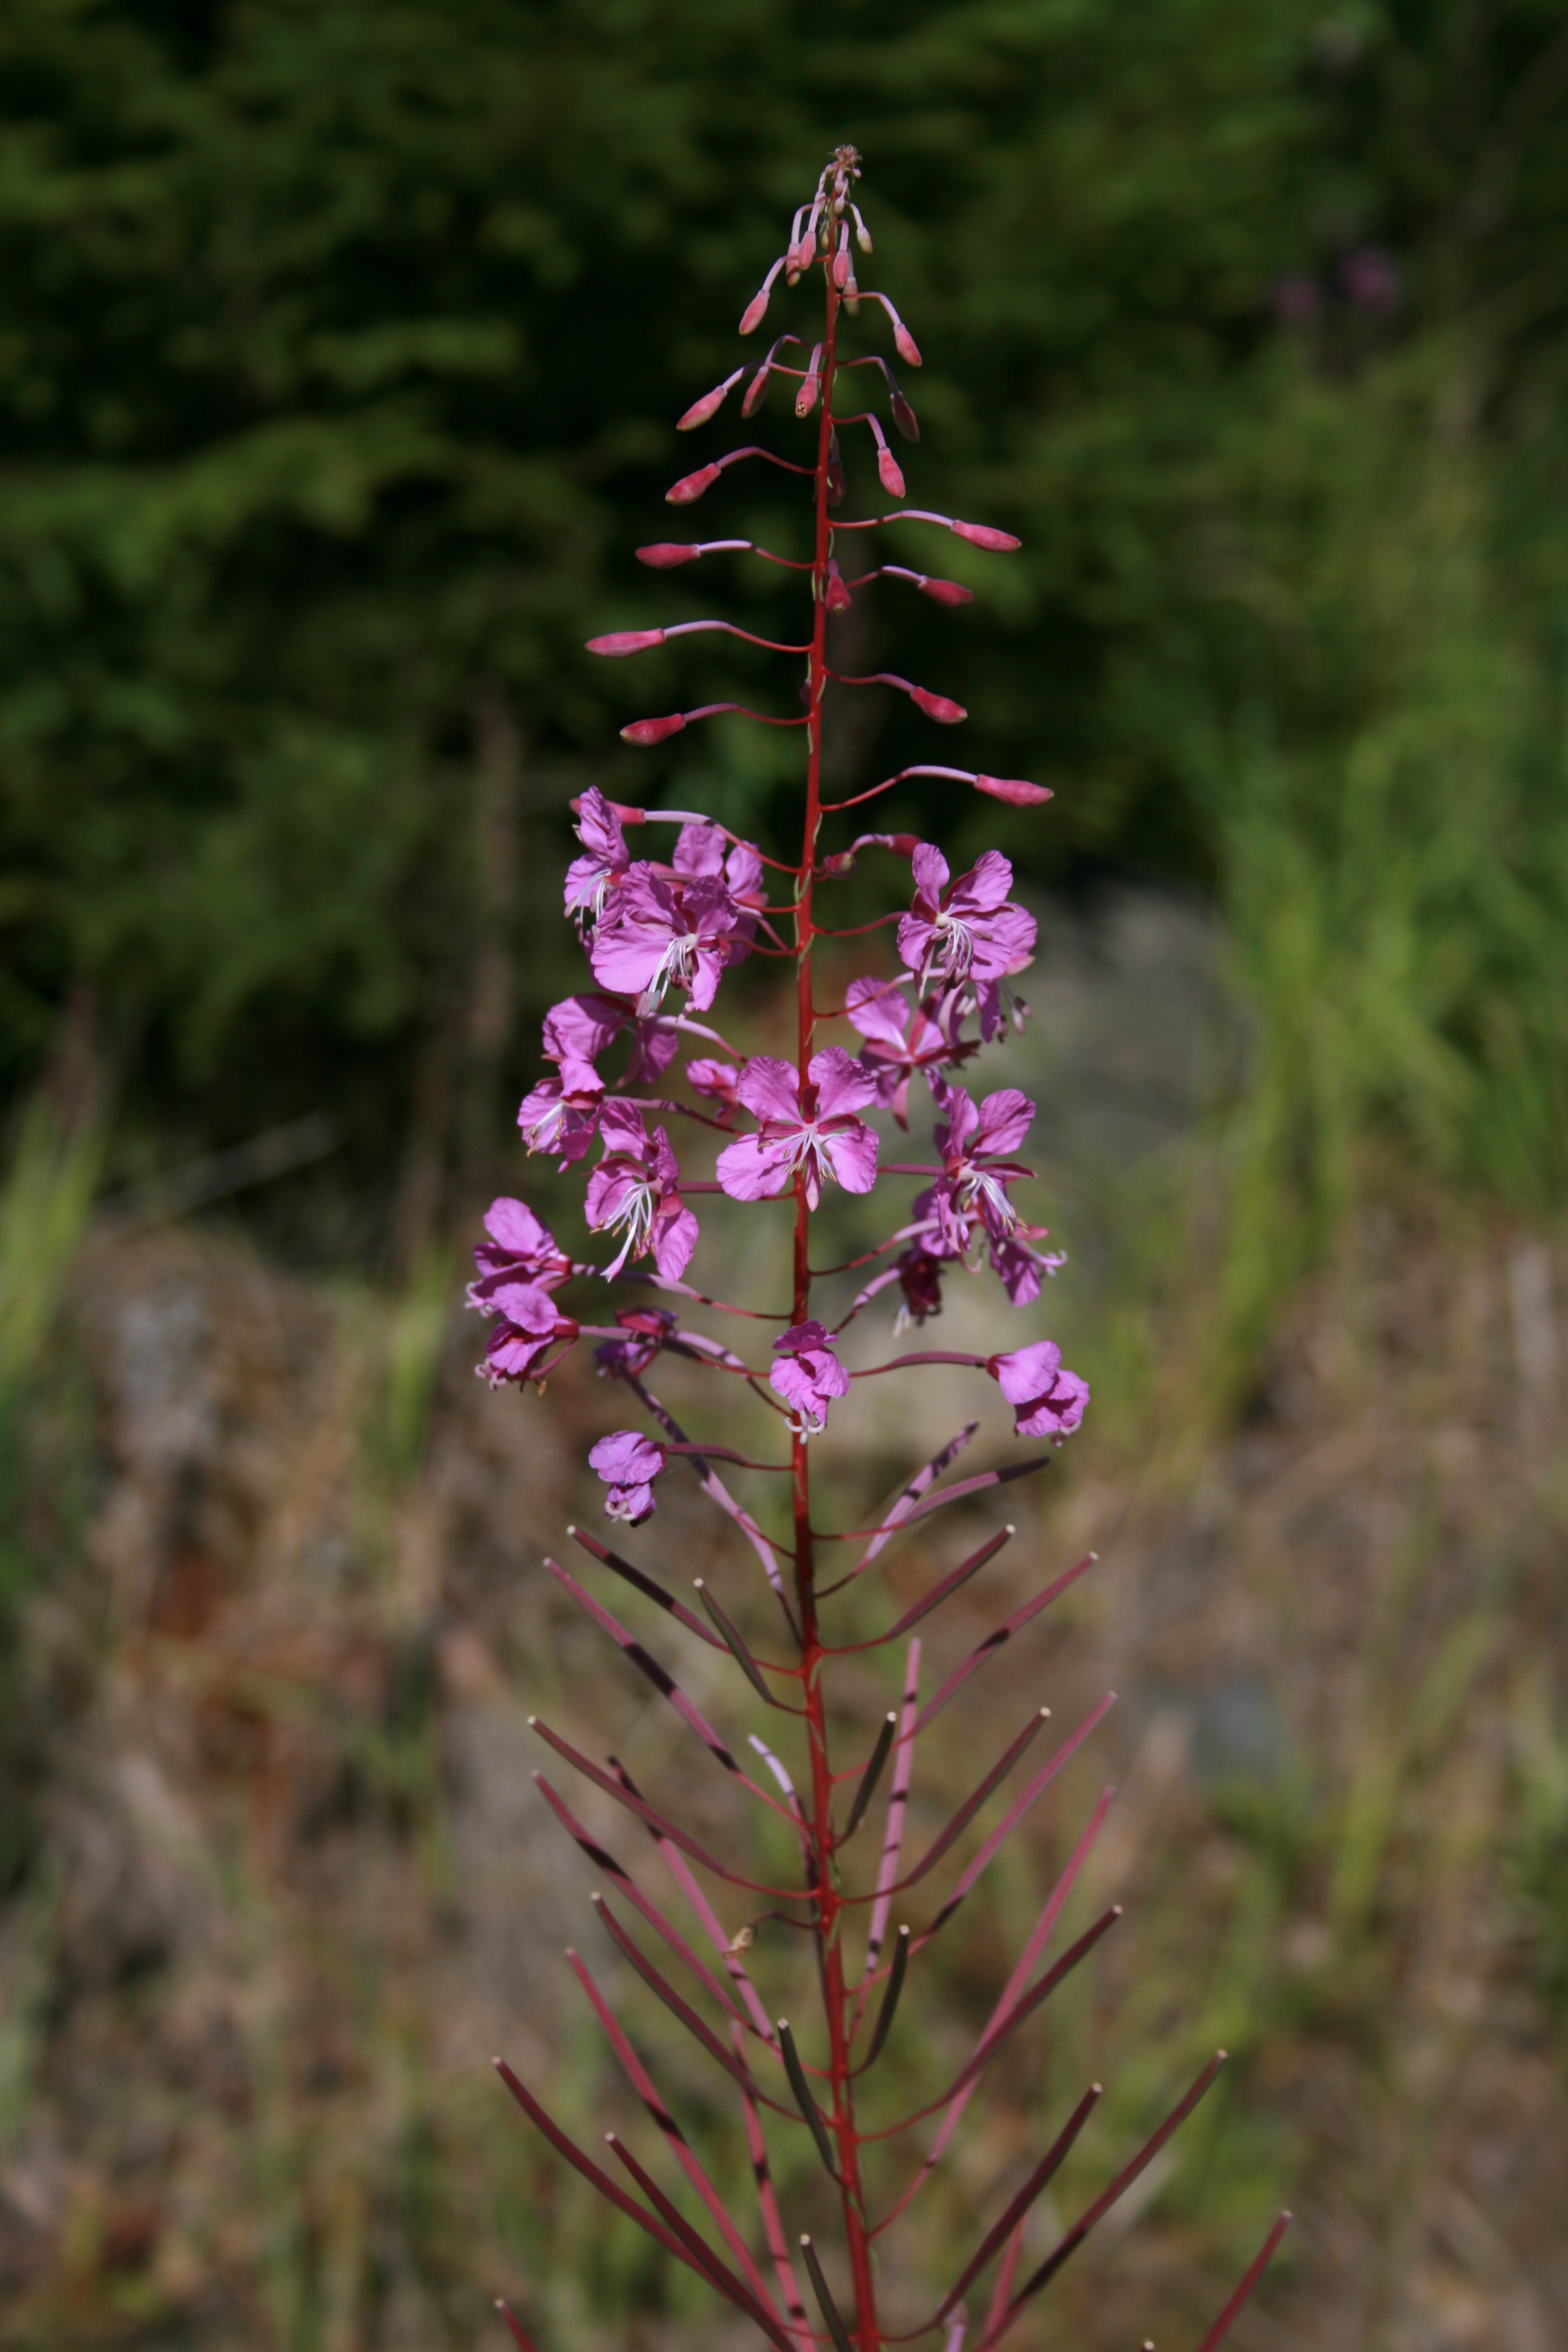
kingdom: Plantae
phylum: Tracheophyta
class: Magnoliopsida
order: Myrtales
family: Onagraceae
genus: Chamaenerion
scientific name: Chamaenerion angustifolium
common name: Fireweed
